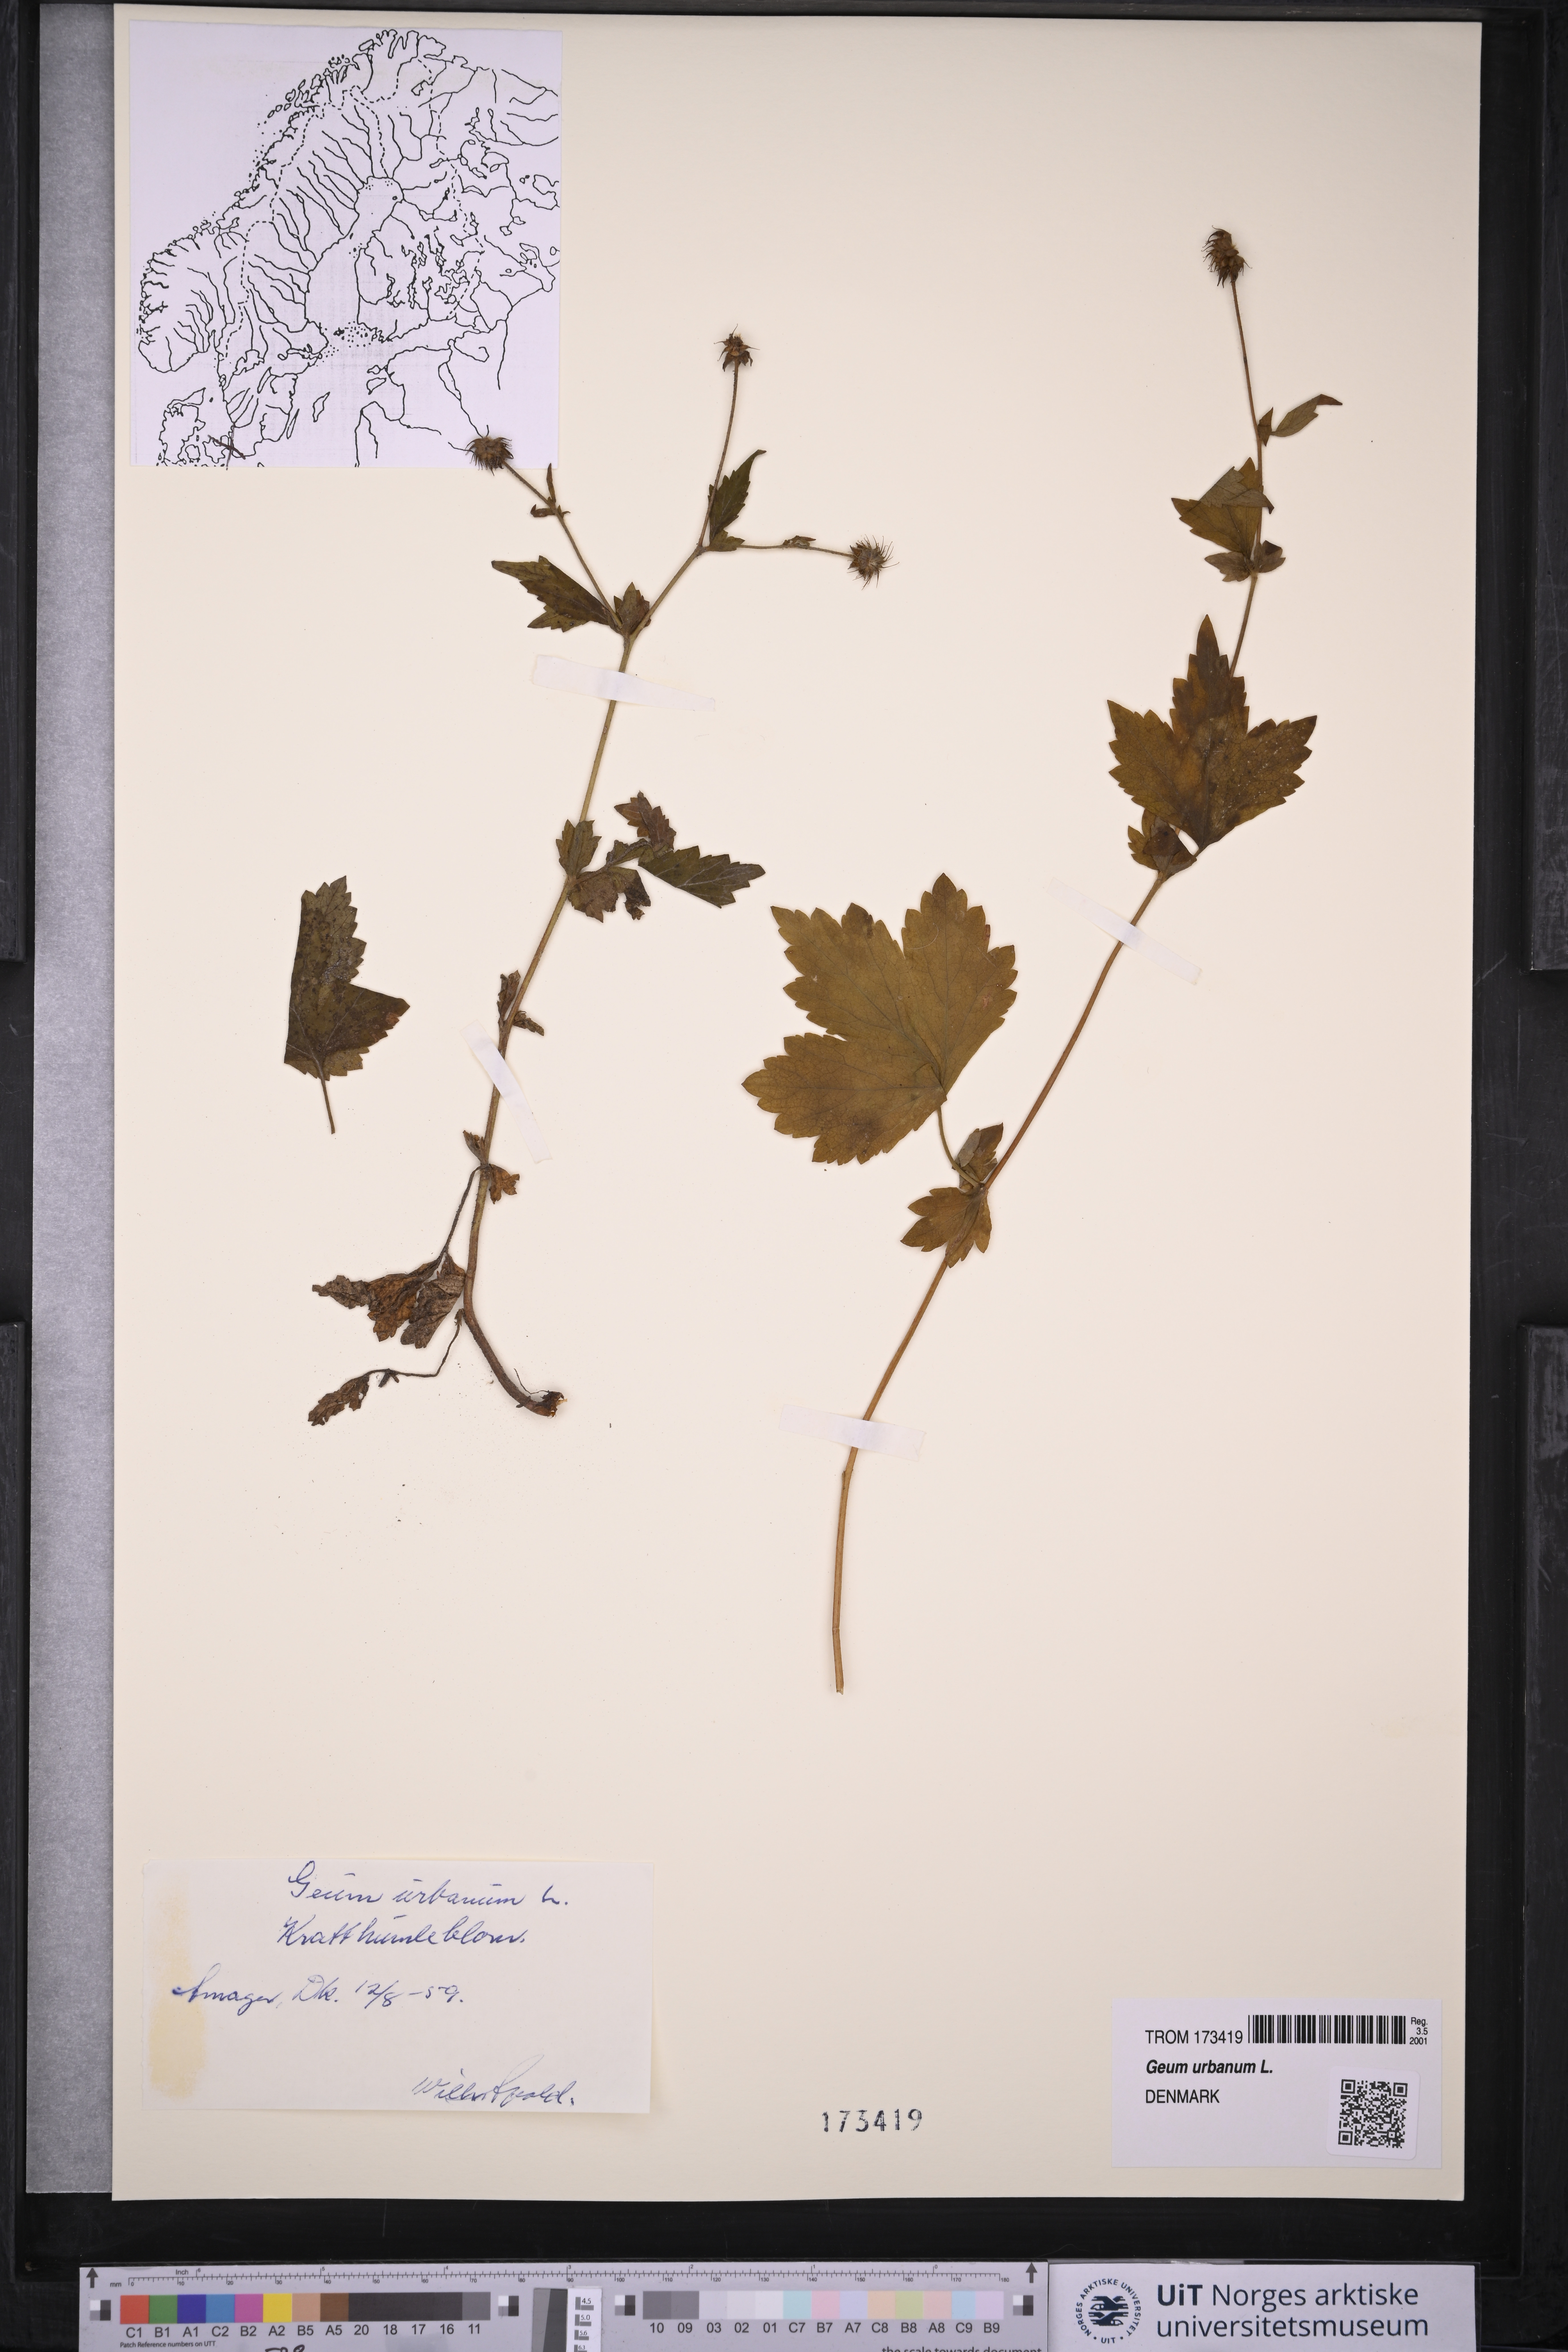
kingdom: Plantae
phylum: Tracheophyta
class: Magnoliopsida
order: Rosales
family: Rosaceae
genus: Geum
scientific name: Geum urbanum
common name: Wood avens
